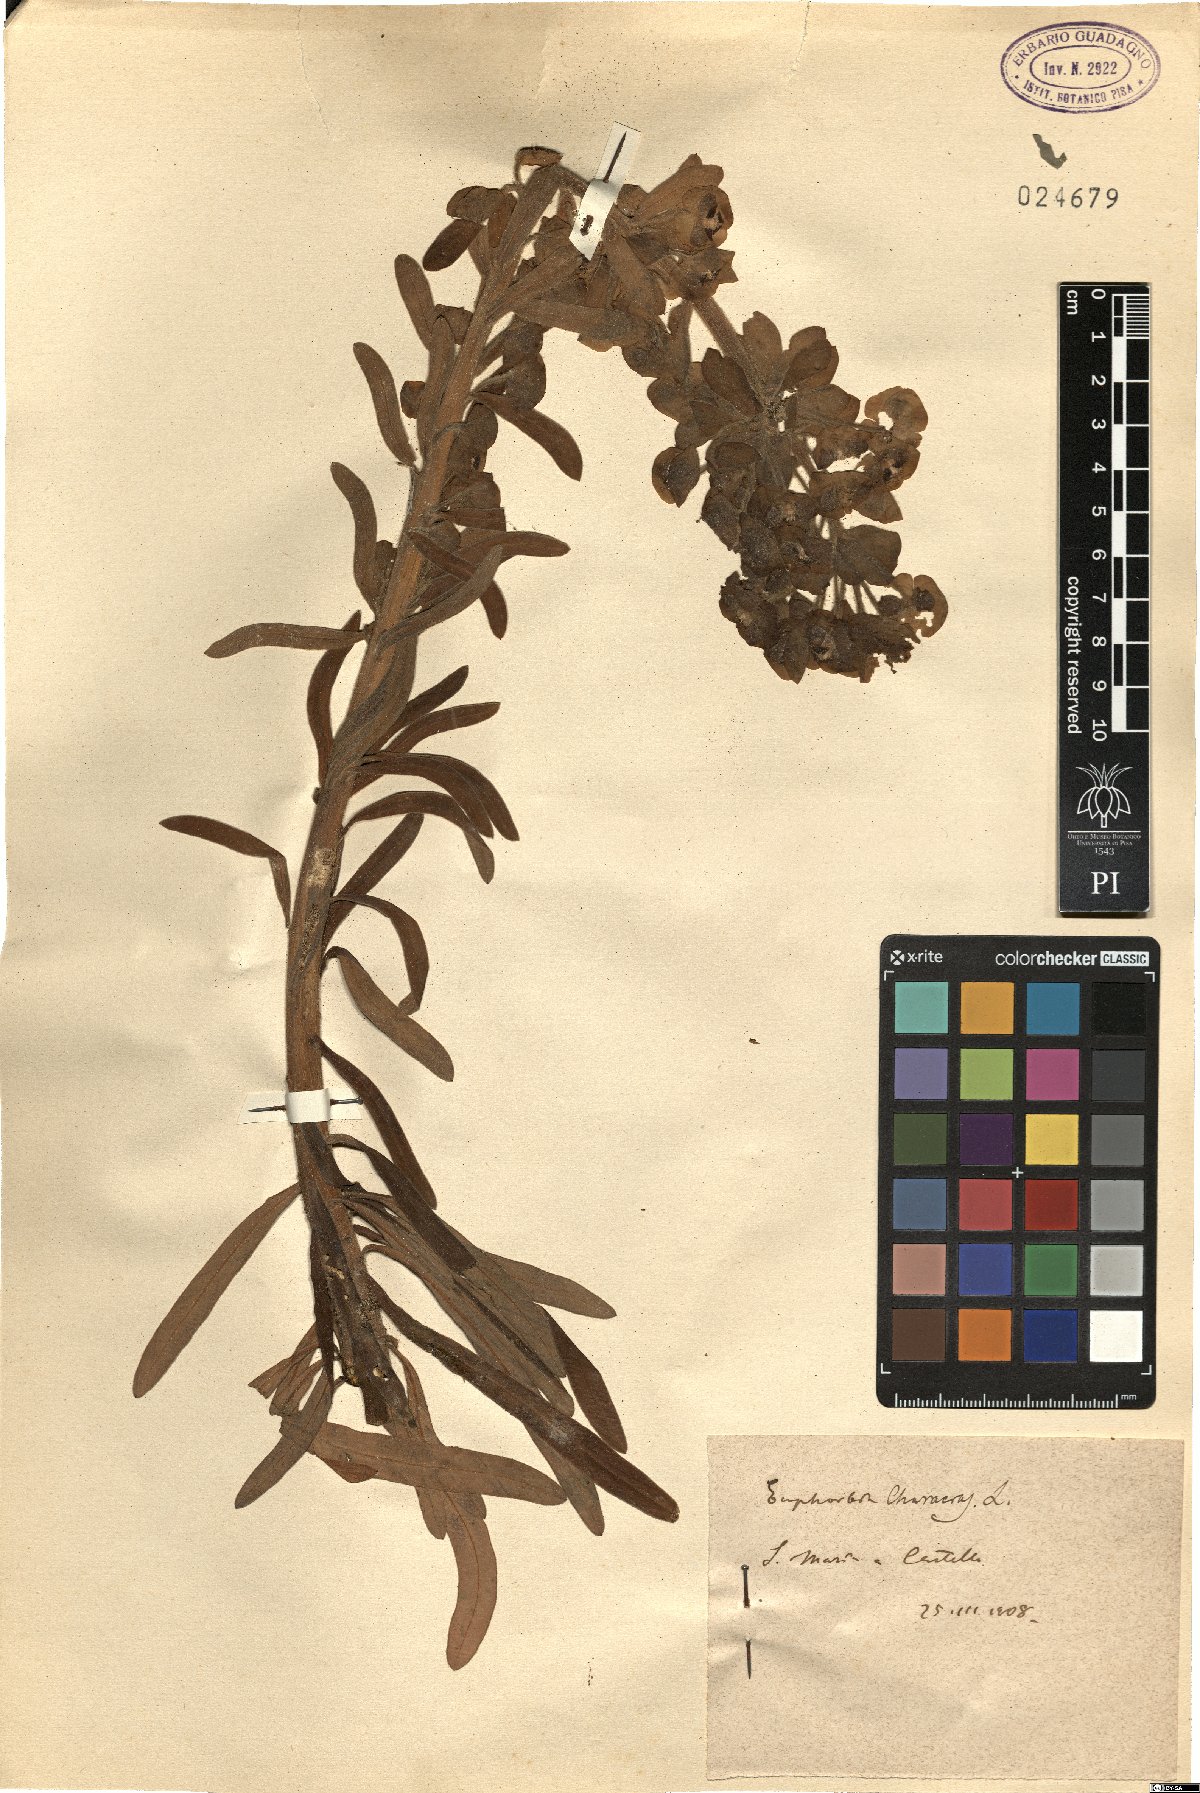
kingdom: Plantae
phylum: Tracheophyta
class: Magnoliopsida
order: Malpighiales
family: Euphorbiaceae
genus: Euphorbia
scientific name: Euphorbia characias
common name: Mediterranean spurge
